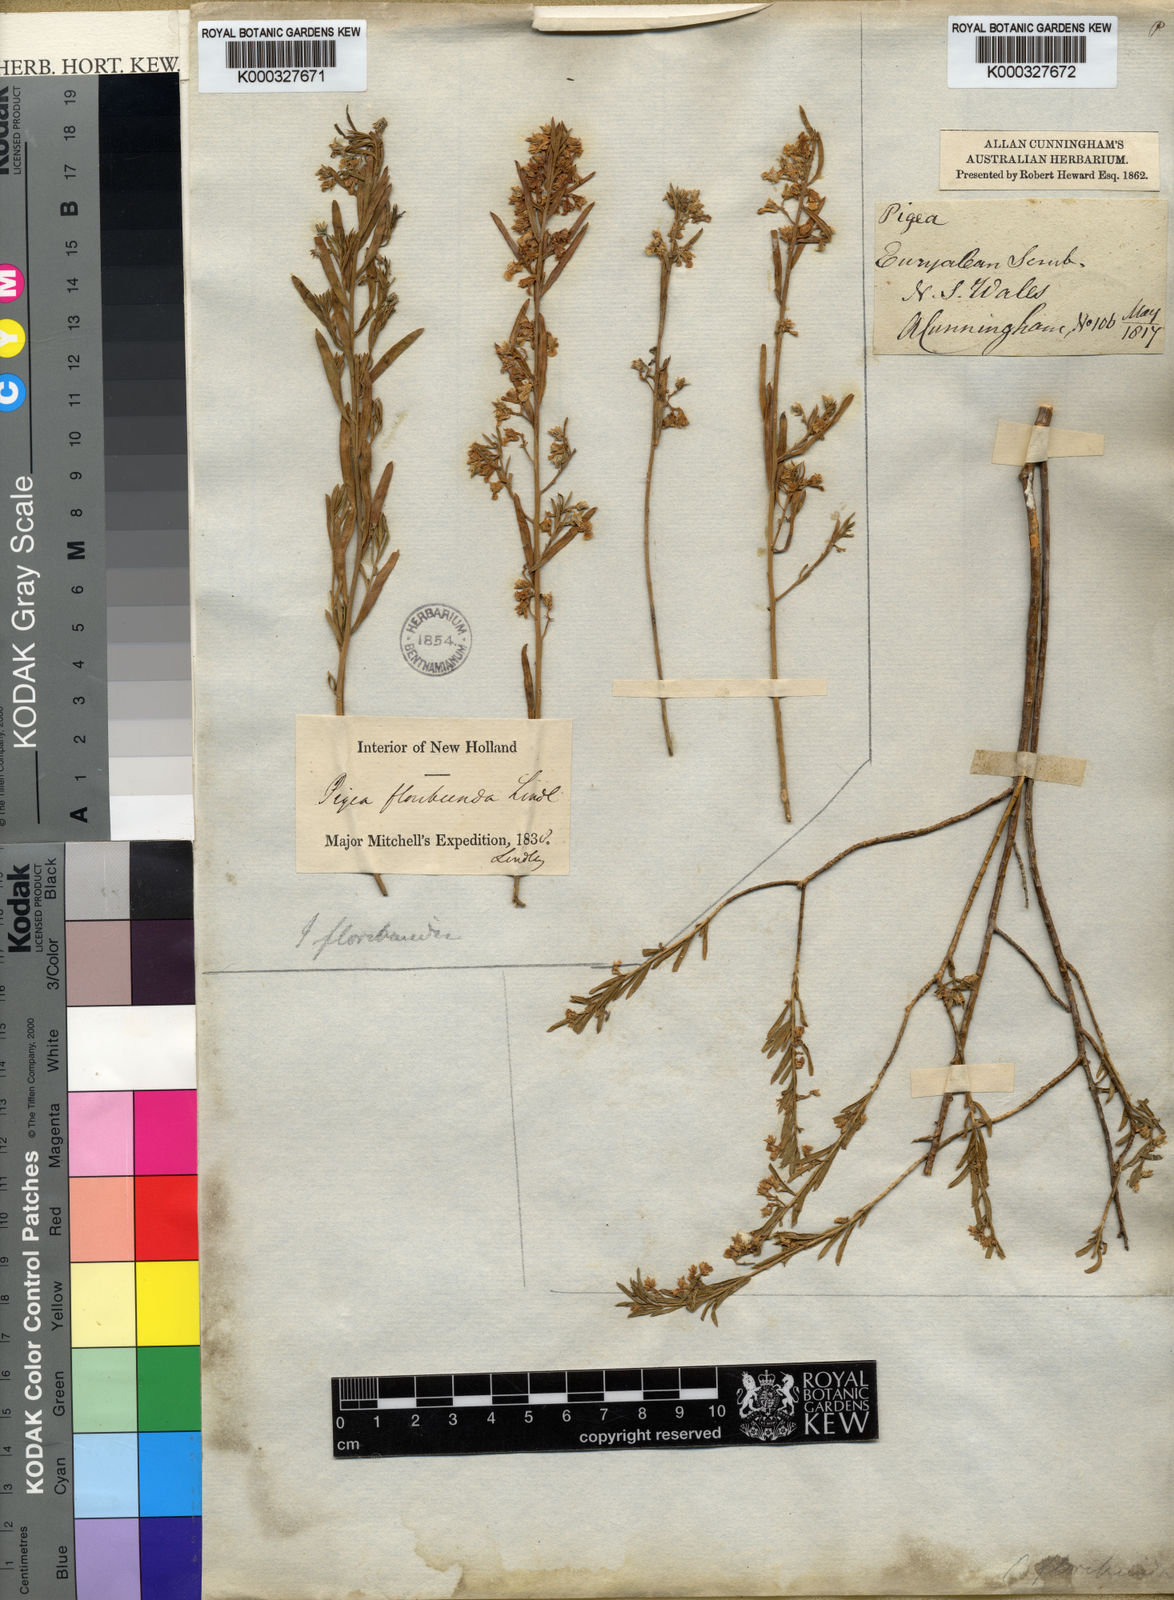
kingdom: Plantae
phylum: Tracheophyta
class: Magnoliopsida
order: Malpighiales
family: Violaceae
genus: Pigea
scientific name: Pigea floribunda
